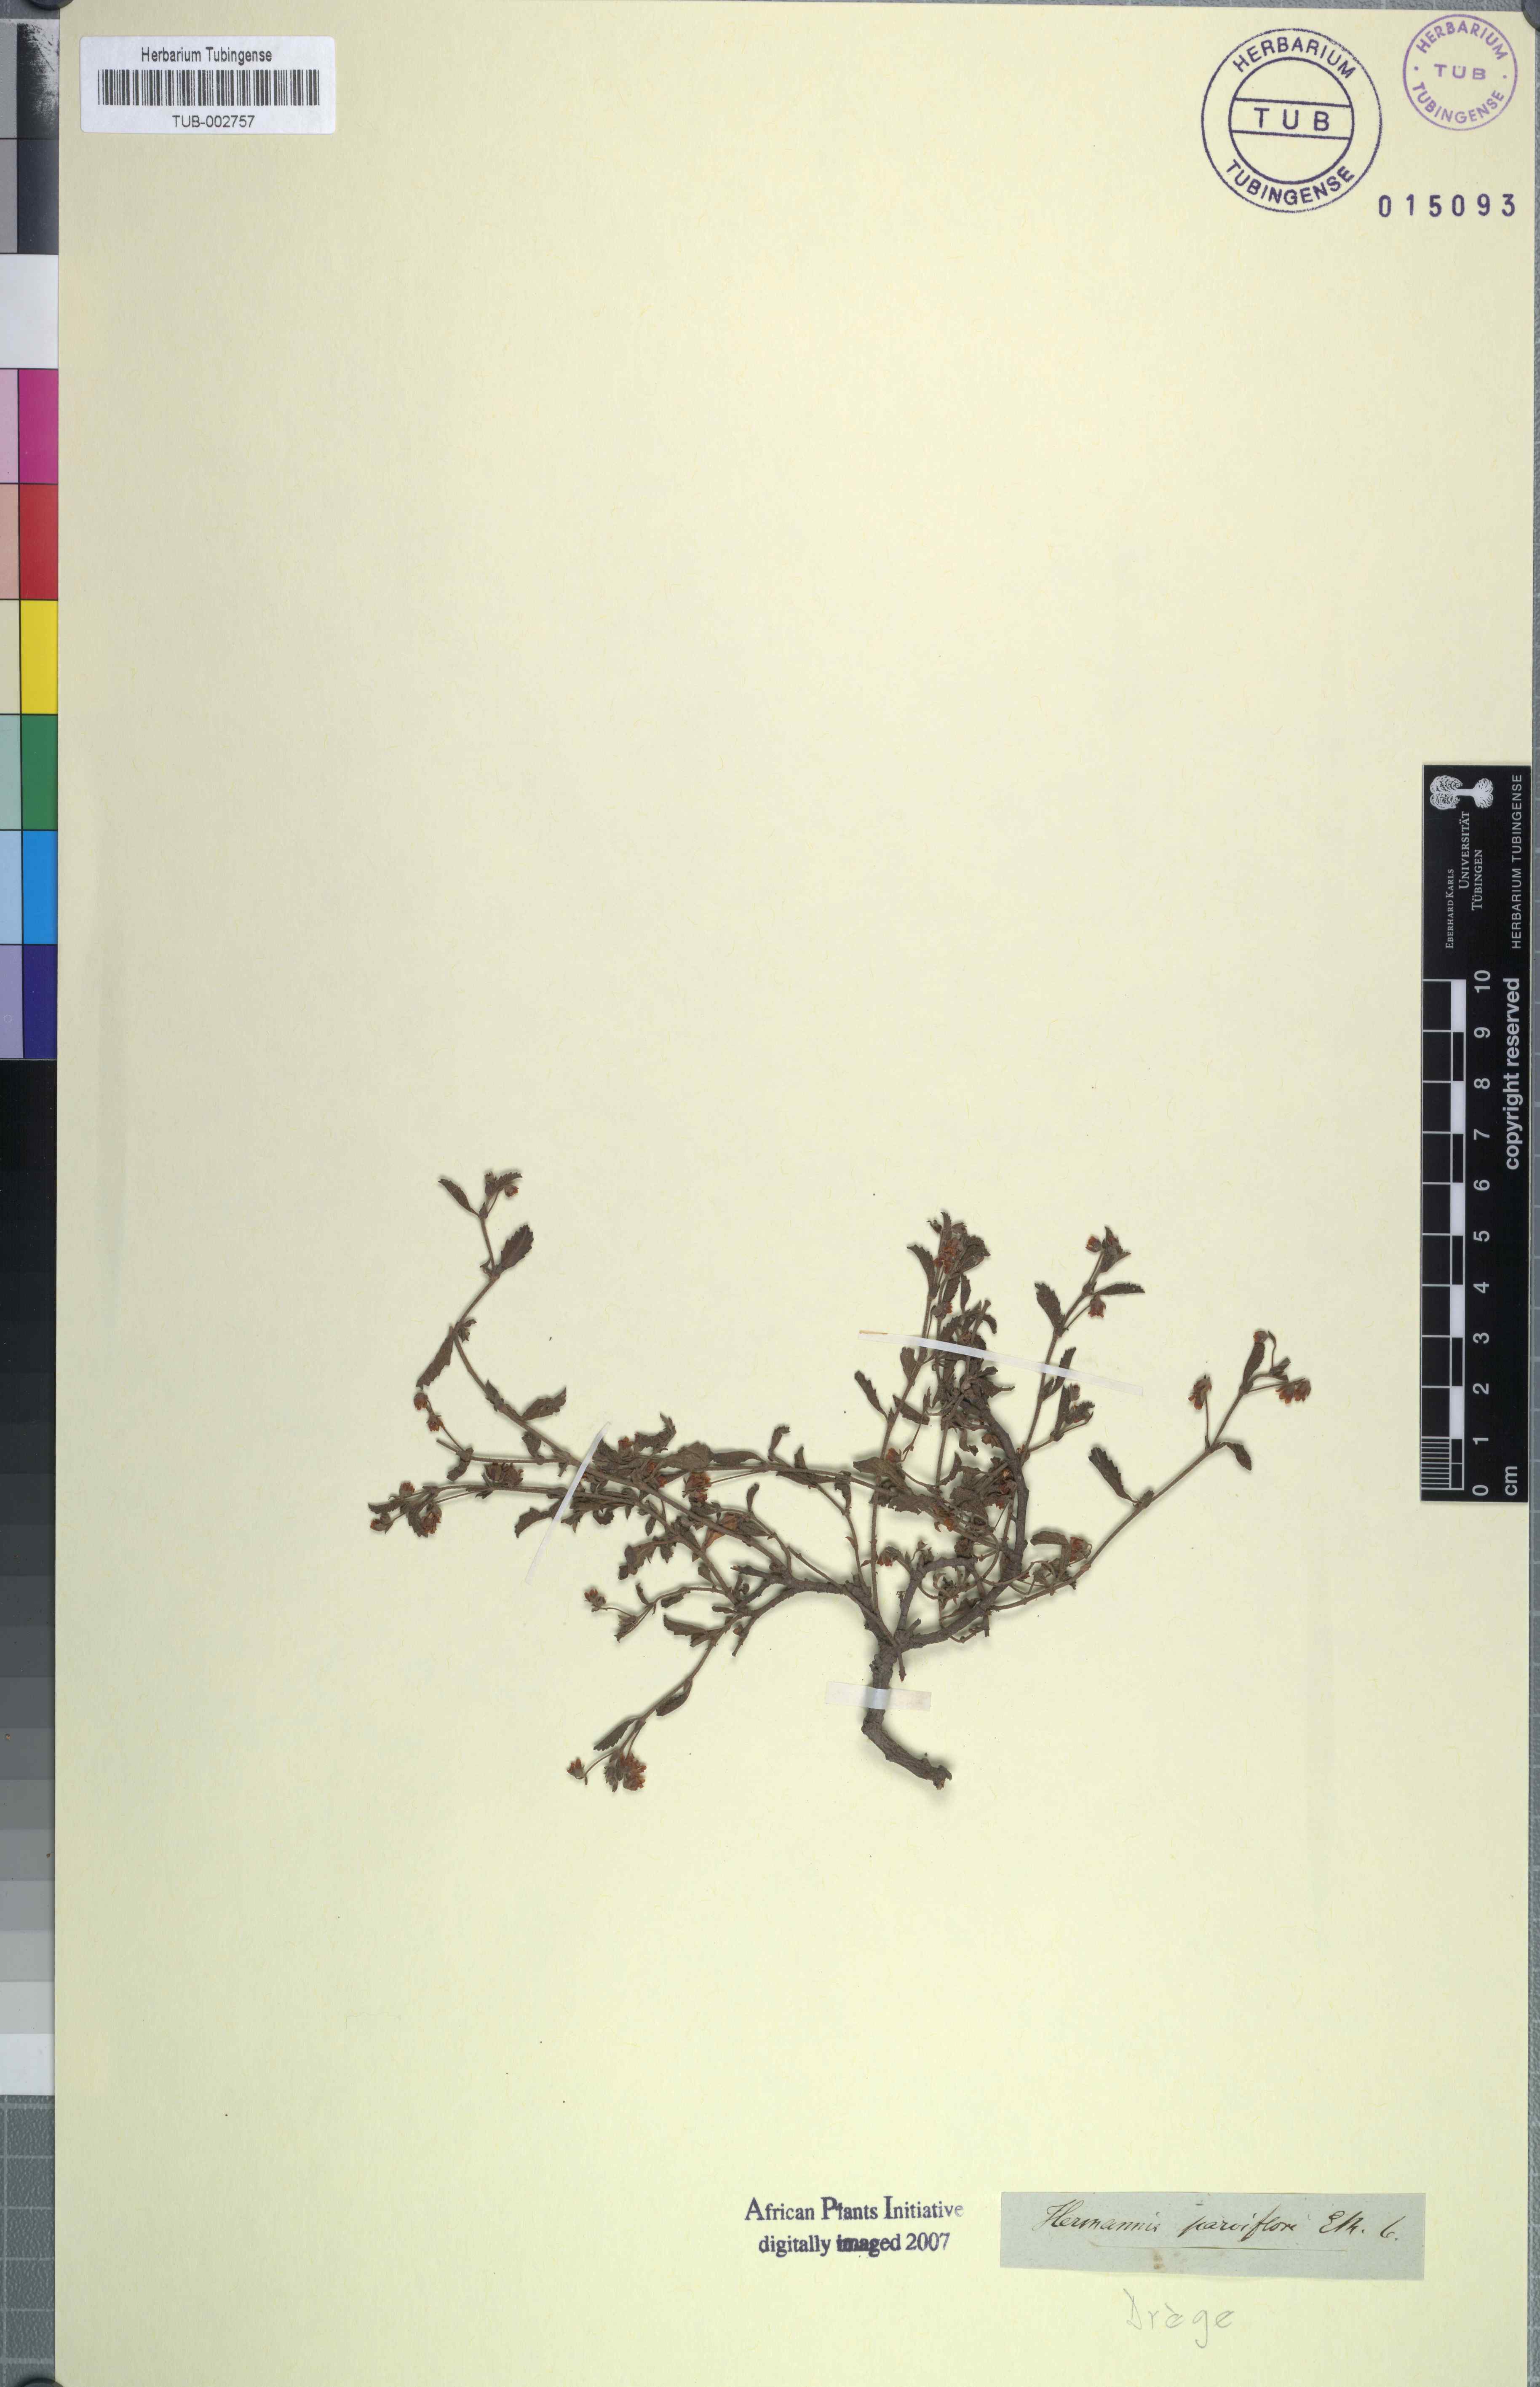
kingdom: Plantae
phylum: Tracheophyta
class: Magnoliopsida
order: Malvales
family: Malvaceae
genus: Hermannia
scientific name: Hermannia parviflora
